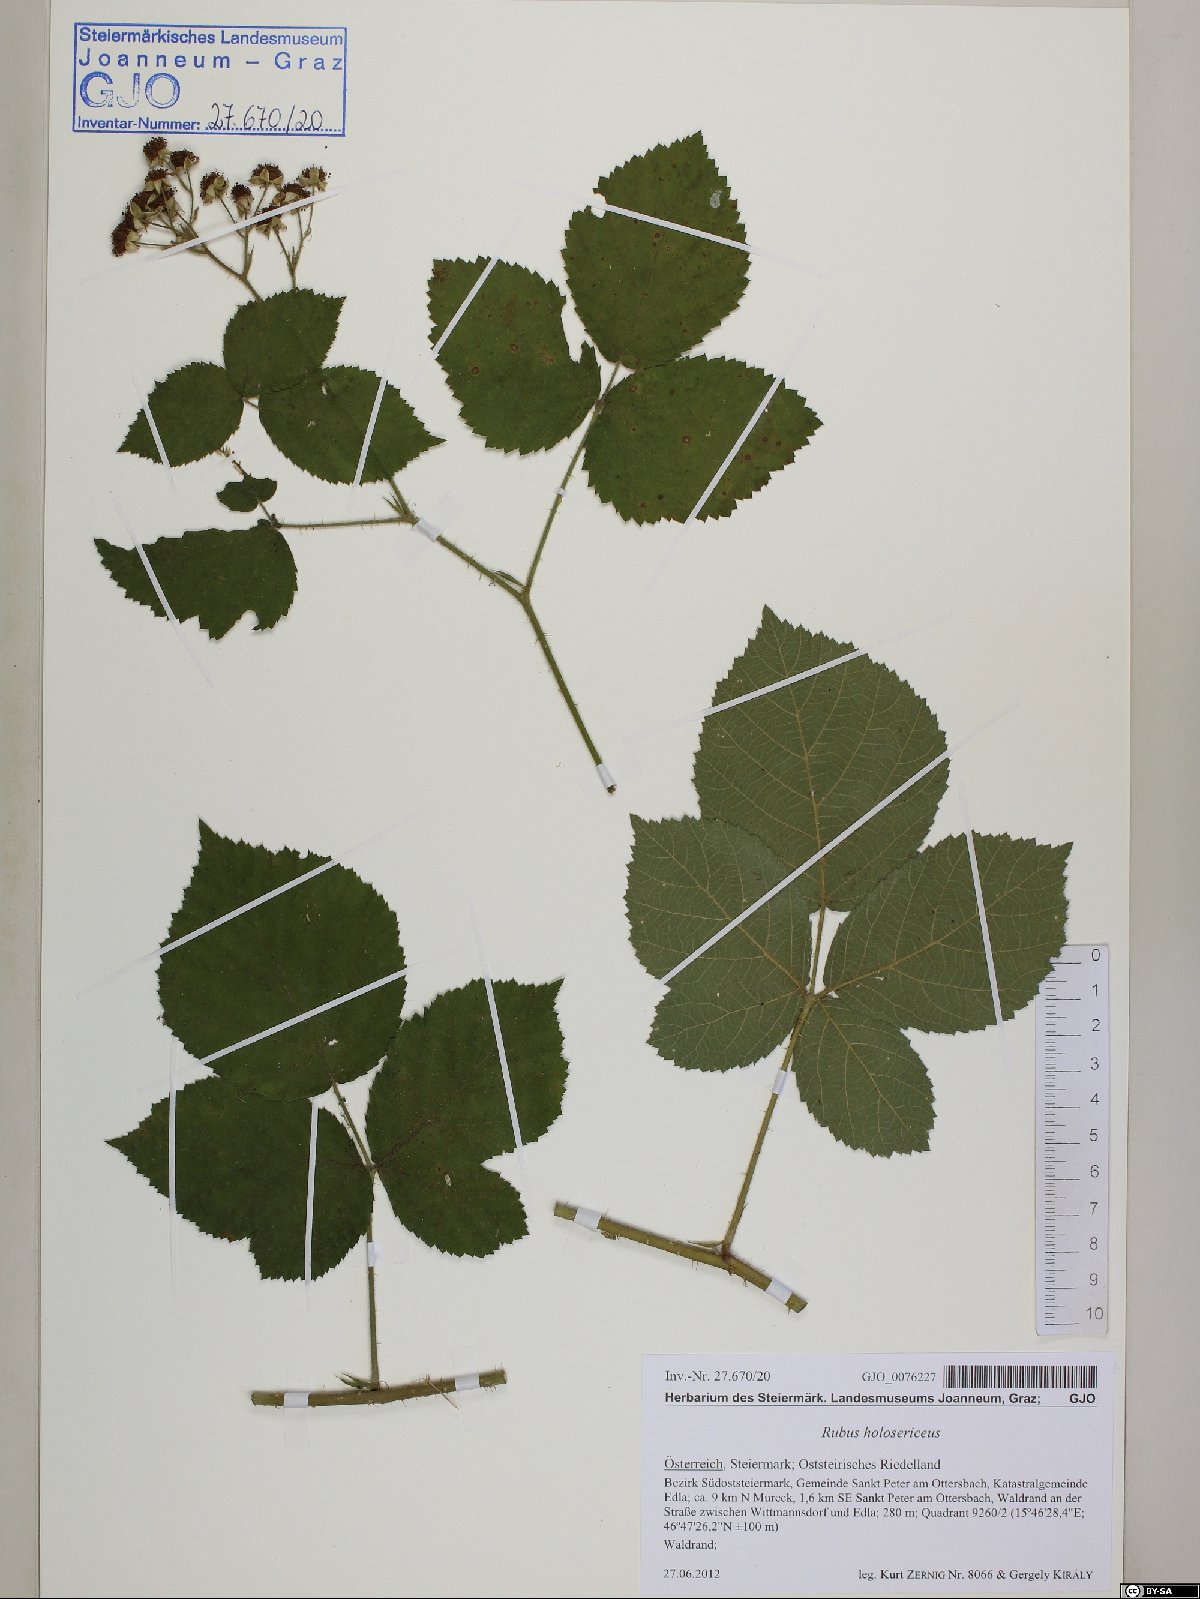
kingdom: Plantae
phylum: Tracheophyta
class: Magnoliopsida
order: Rosales
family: Rosaceae
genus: Rubus
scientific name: Rubus holosericeus
